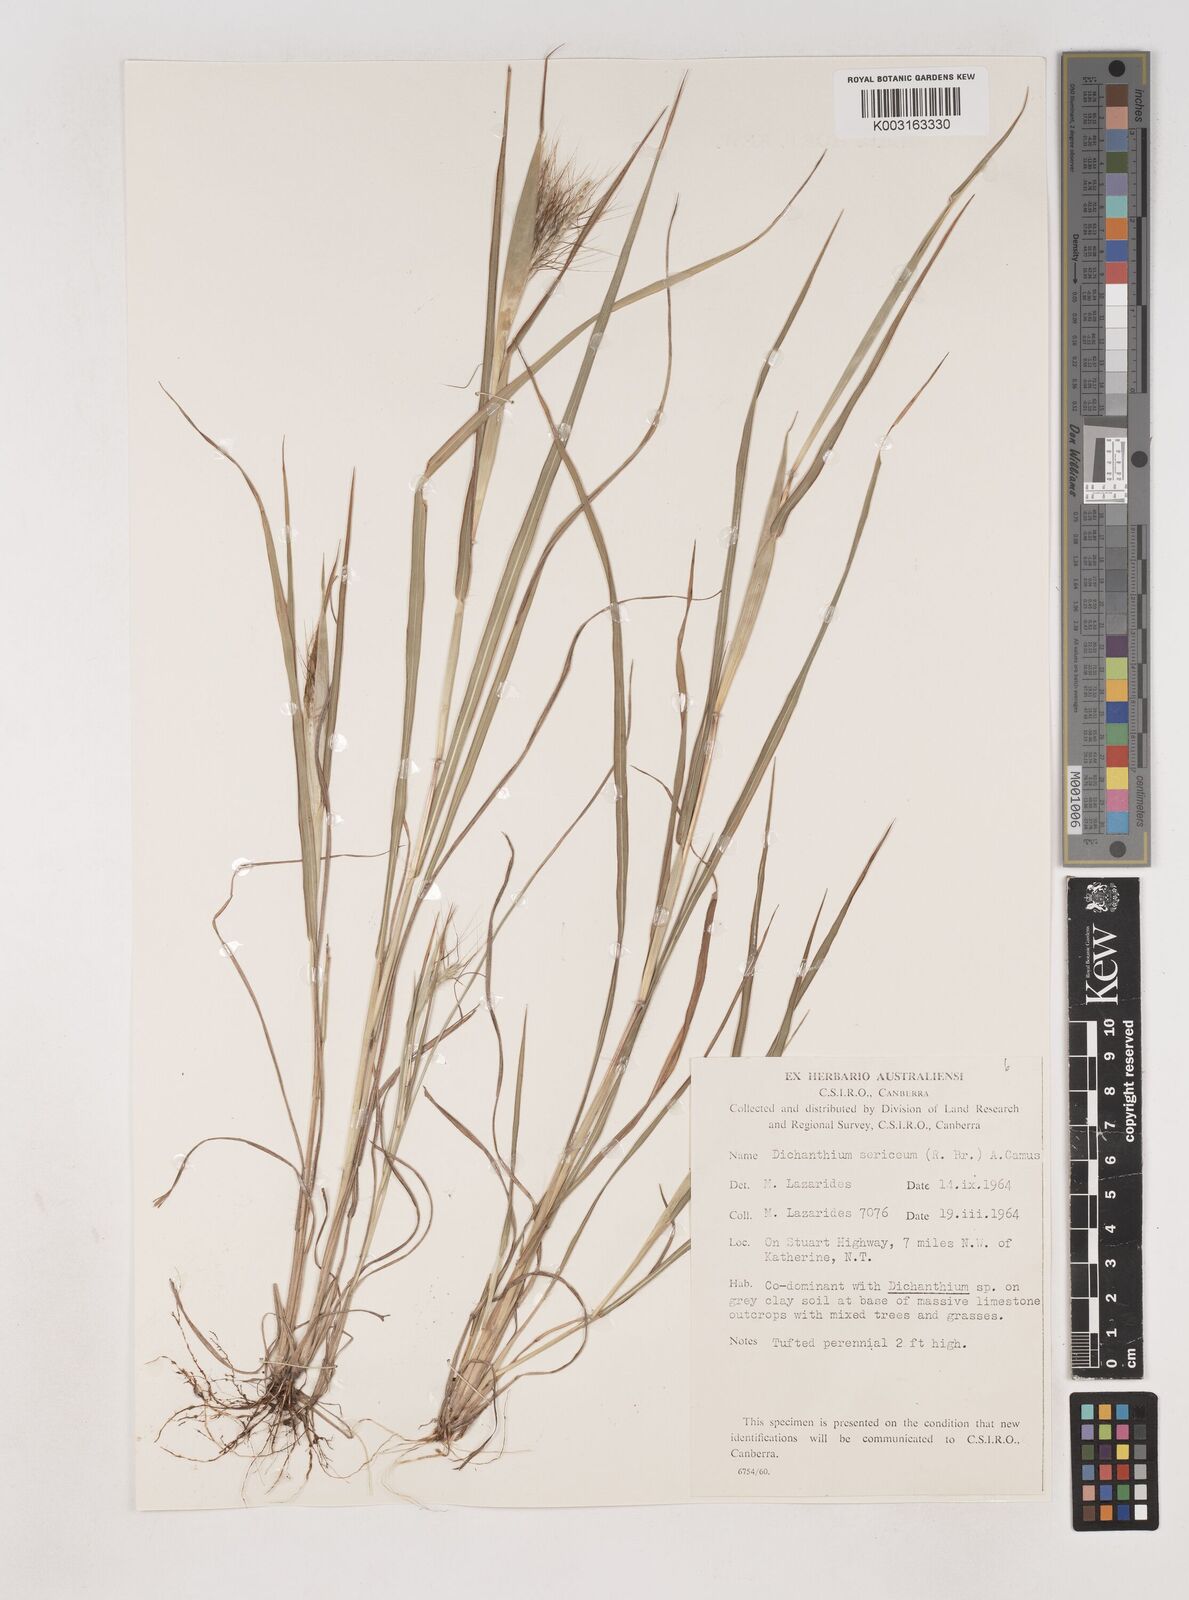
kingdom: Plantae
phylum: Tracheophyta
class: Liliopsida
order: Poales
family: Poaceae
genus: Dichanthium
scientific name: Dichanthium sericeum
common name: Silky bluestem
